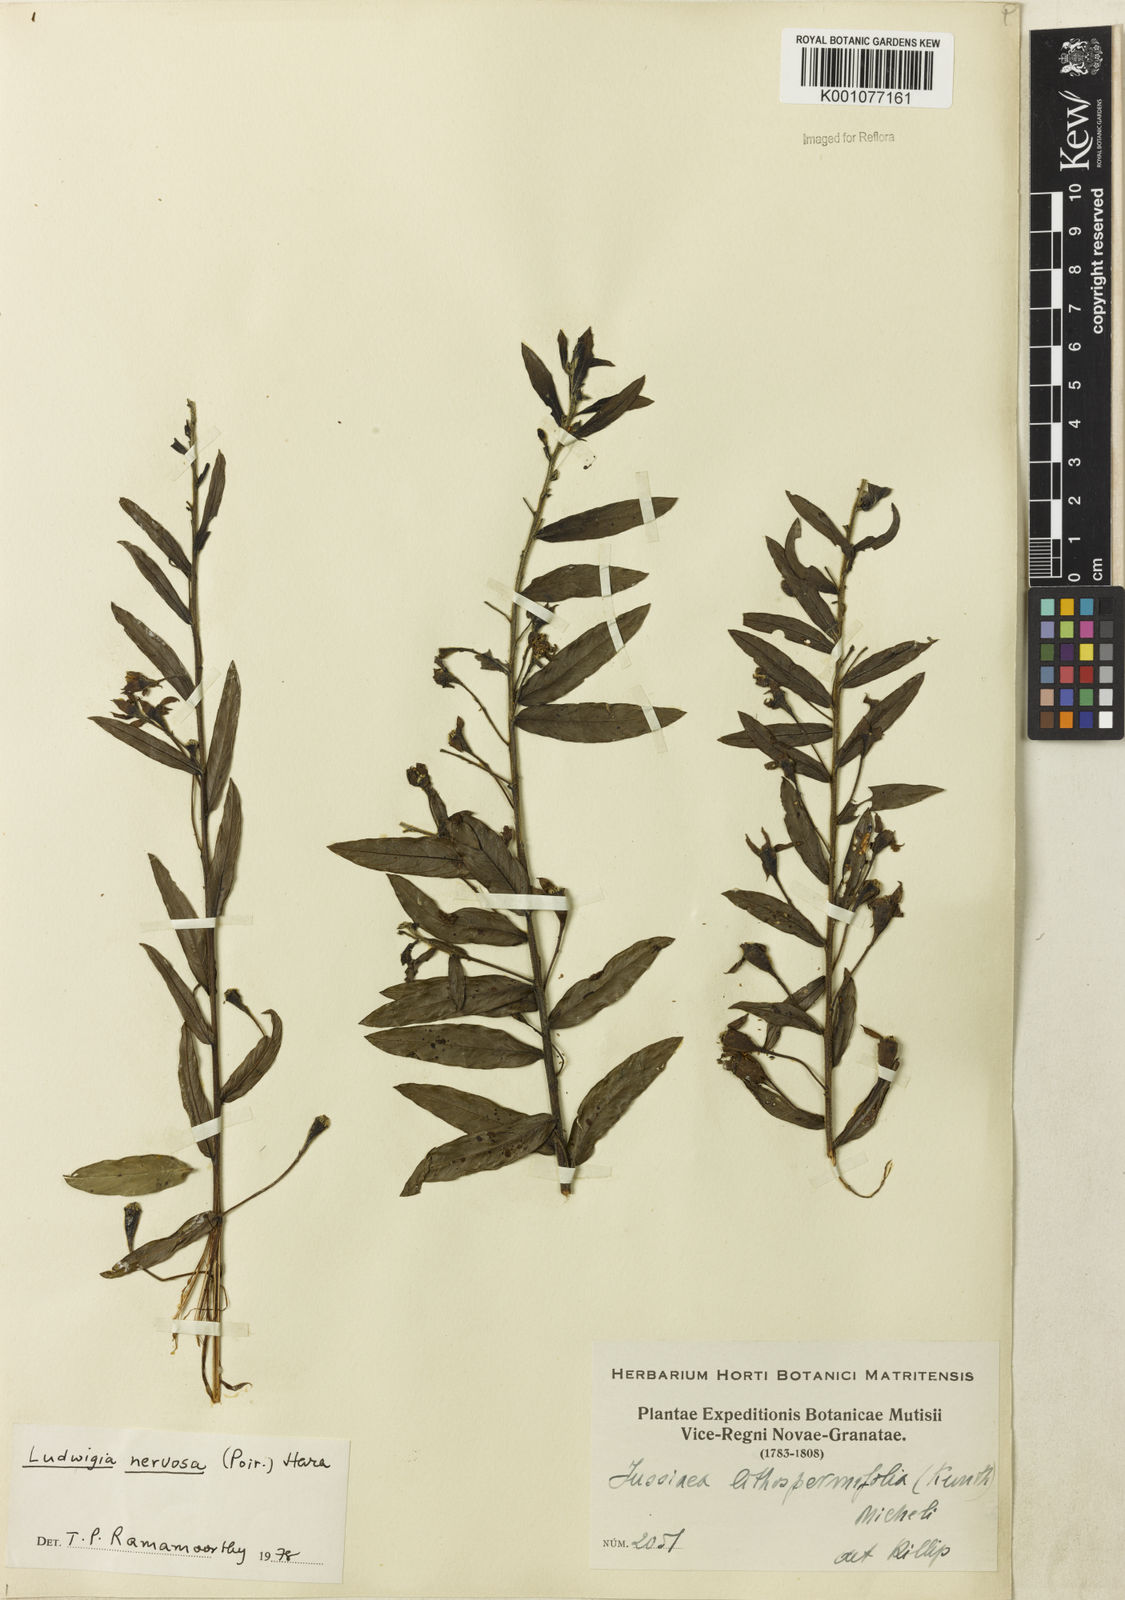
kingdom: Plantae
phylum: Tracheophyta
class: Magnoliopsida
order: Myrtales
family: Onagraceae
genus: Ludwigia
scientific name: Ludwigia nervosa
